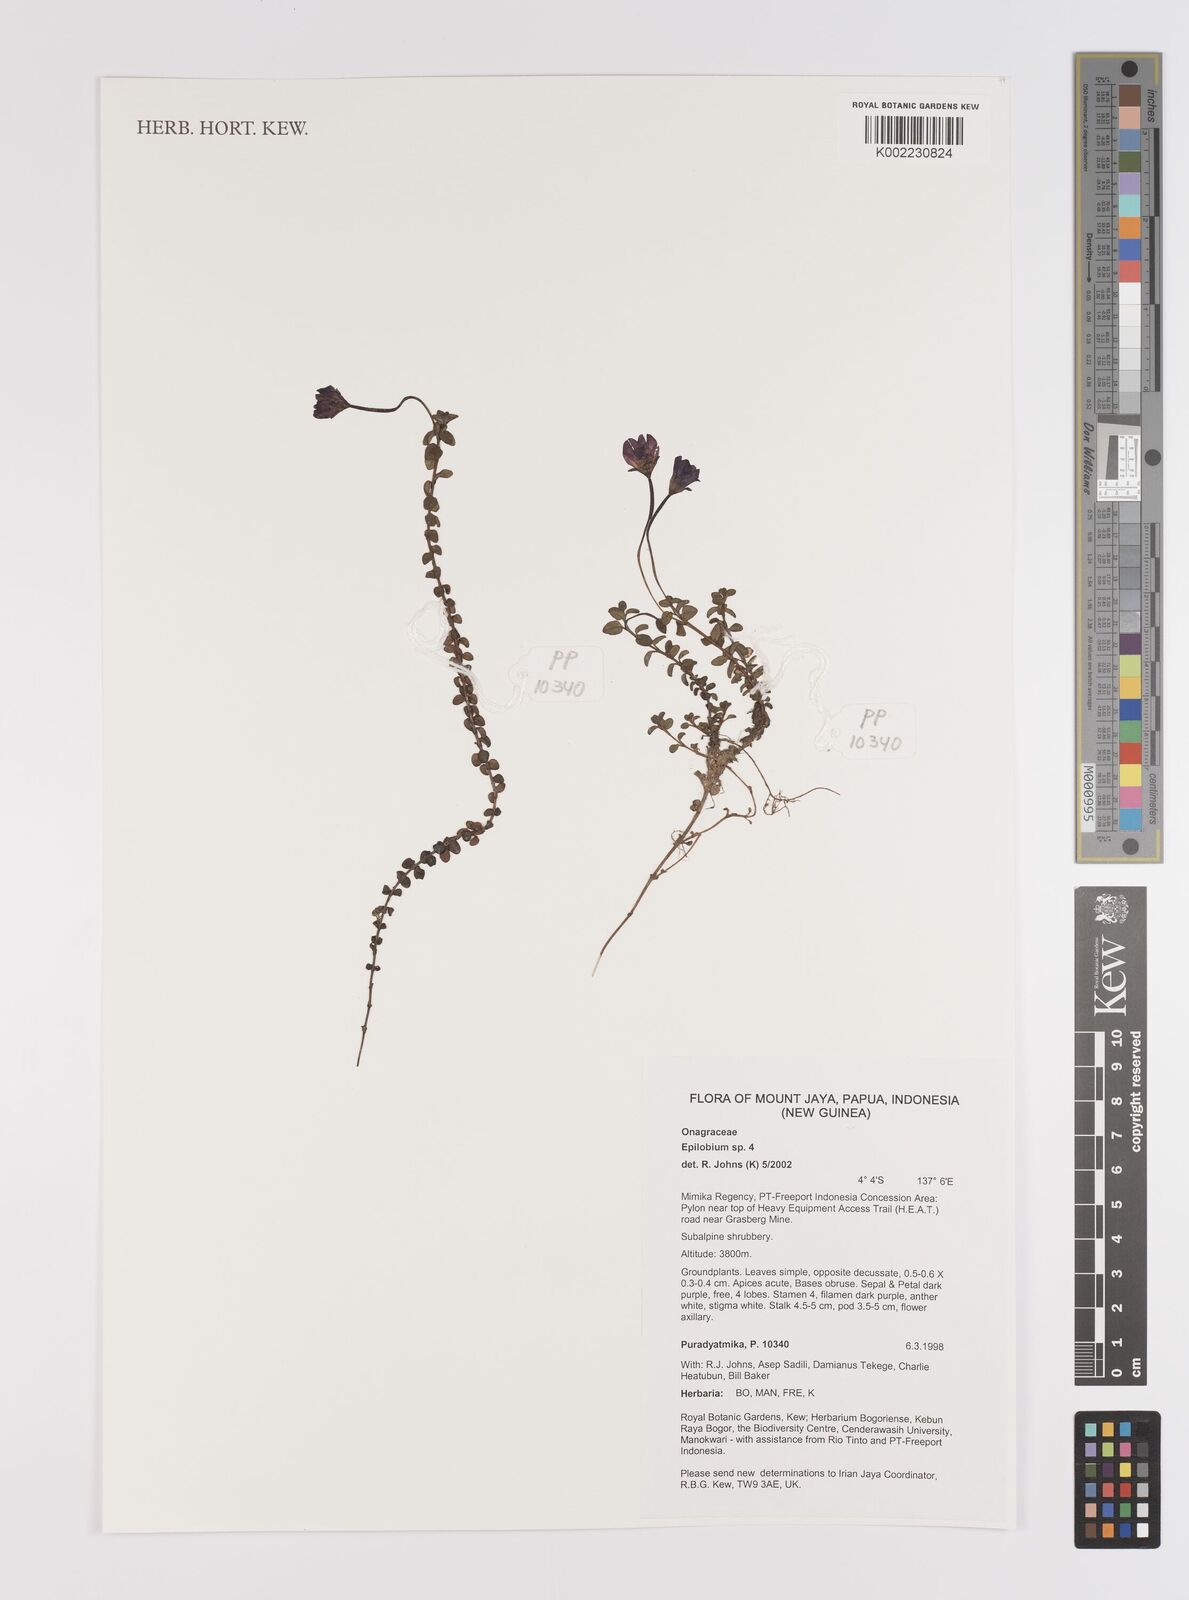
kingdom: Plantae
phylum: Tracheophyta
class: Magnoliopsida
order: Myrtales
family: Onagraceae
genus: Epilobium
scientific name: Epilobium
